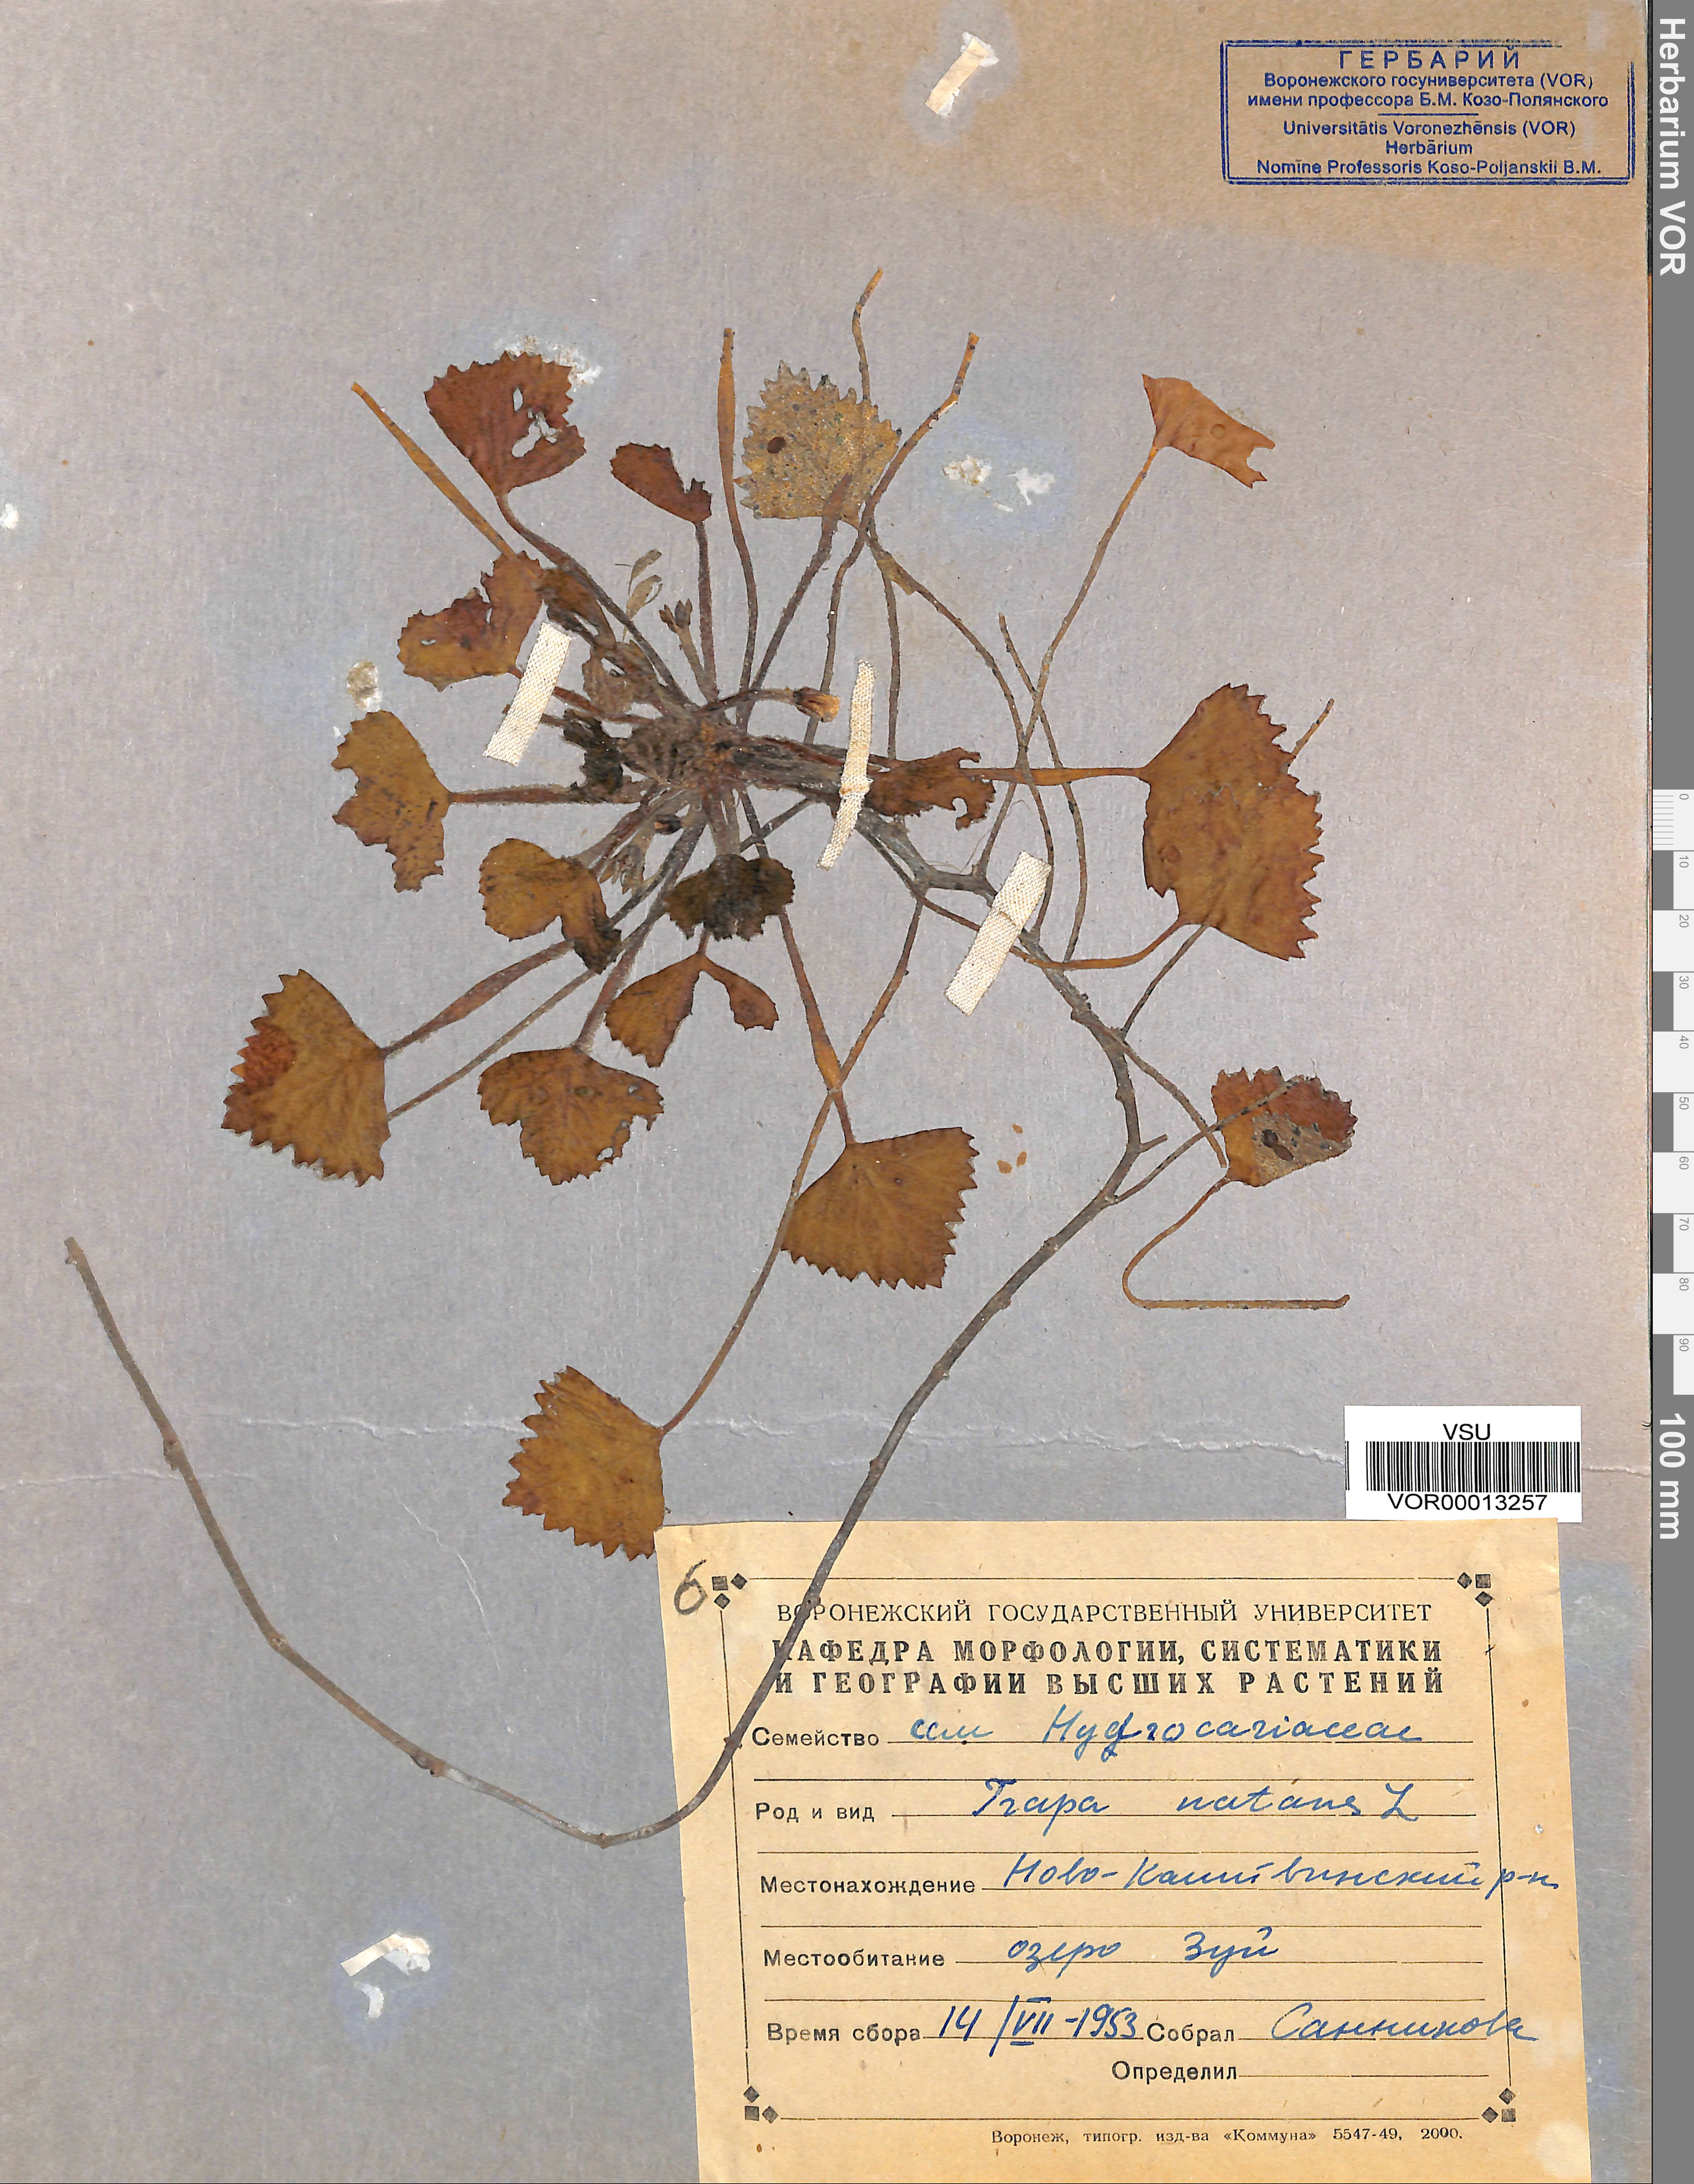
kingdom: Plantae
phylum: Tracheophyta
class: Magnoliopsida
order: Myrtales
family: Lythraceae
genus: Trapa
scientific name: Trapa natans
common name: Water chestnut
